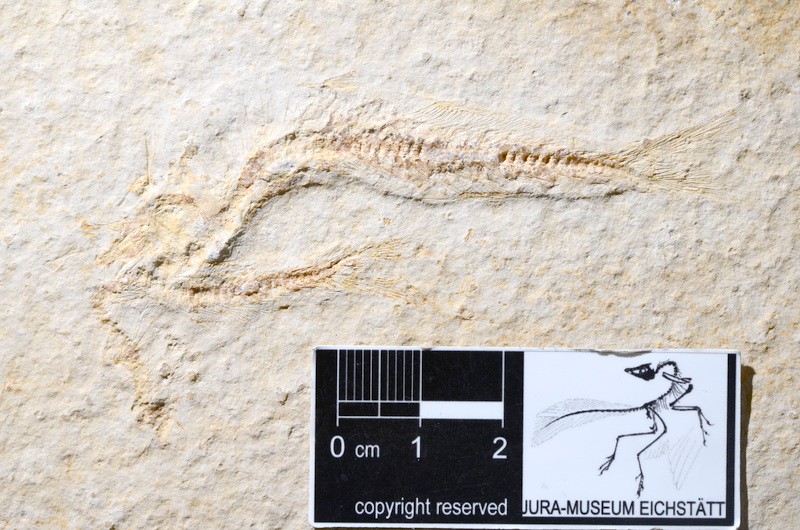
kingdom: Animalia
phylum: Chordata
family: Allothrissopidae
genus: Allothrissops
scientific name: Allothrissops mesogaster
